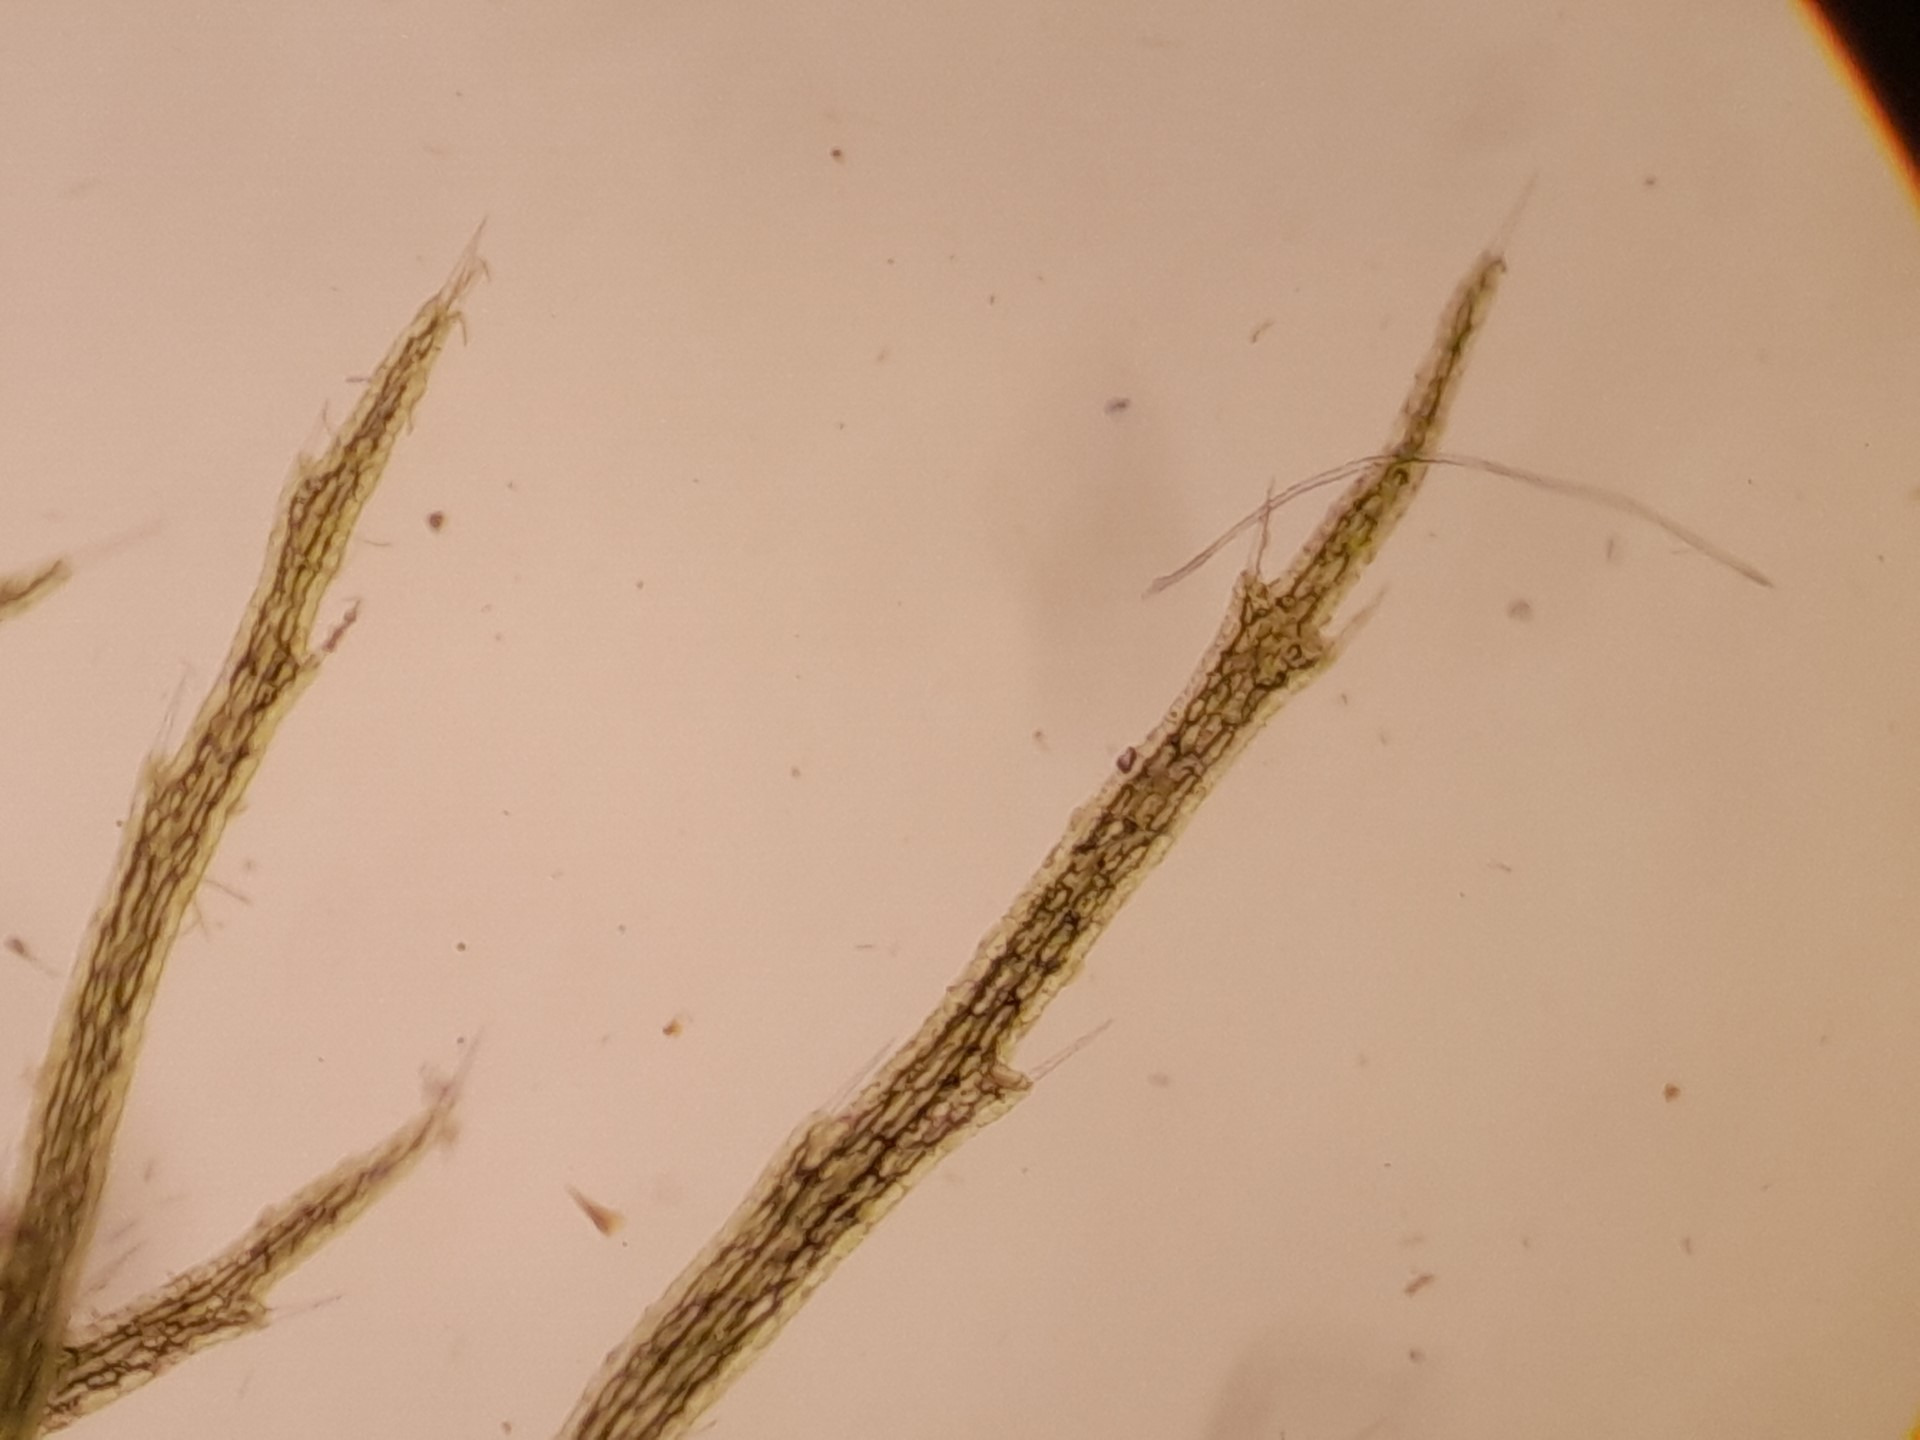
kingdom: Plantae
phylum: Tracheophyta
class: Magnoliopsida
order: Lamiales
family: Lentibulariaceae
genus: Utricularia
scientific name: Utricularia
